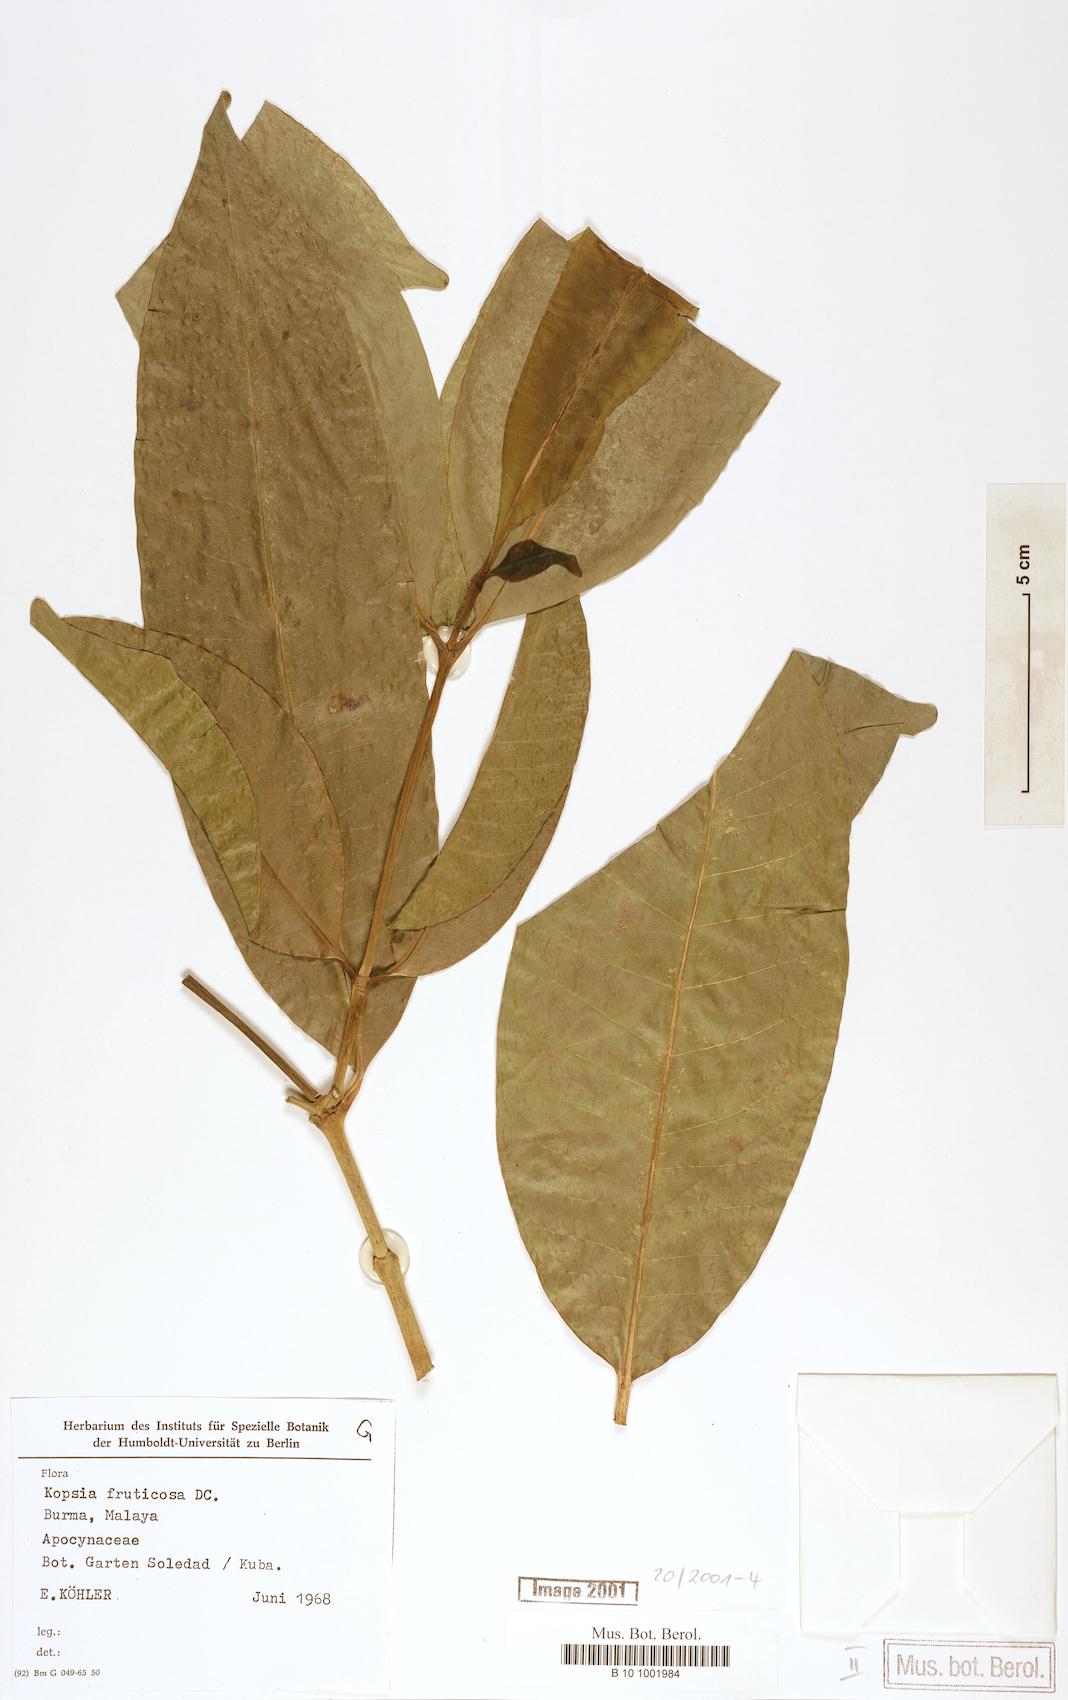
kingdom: Plantae
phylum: Tracheophyta
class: Magnoliopsida
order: Gentianales
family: Apocynaceae
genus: Kopsia
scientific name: Kopsia fruticosa
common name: Shrub-vinca
